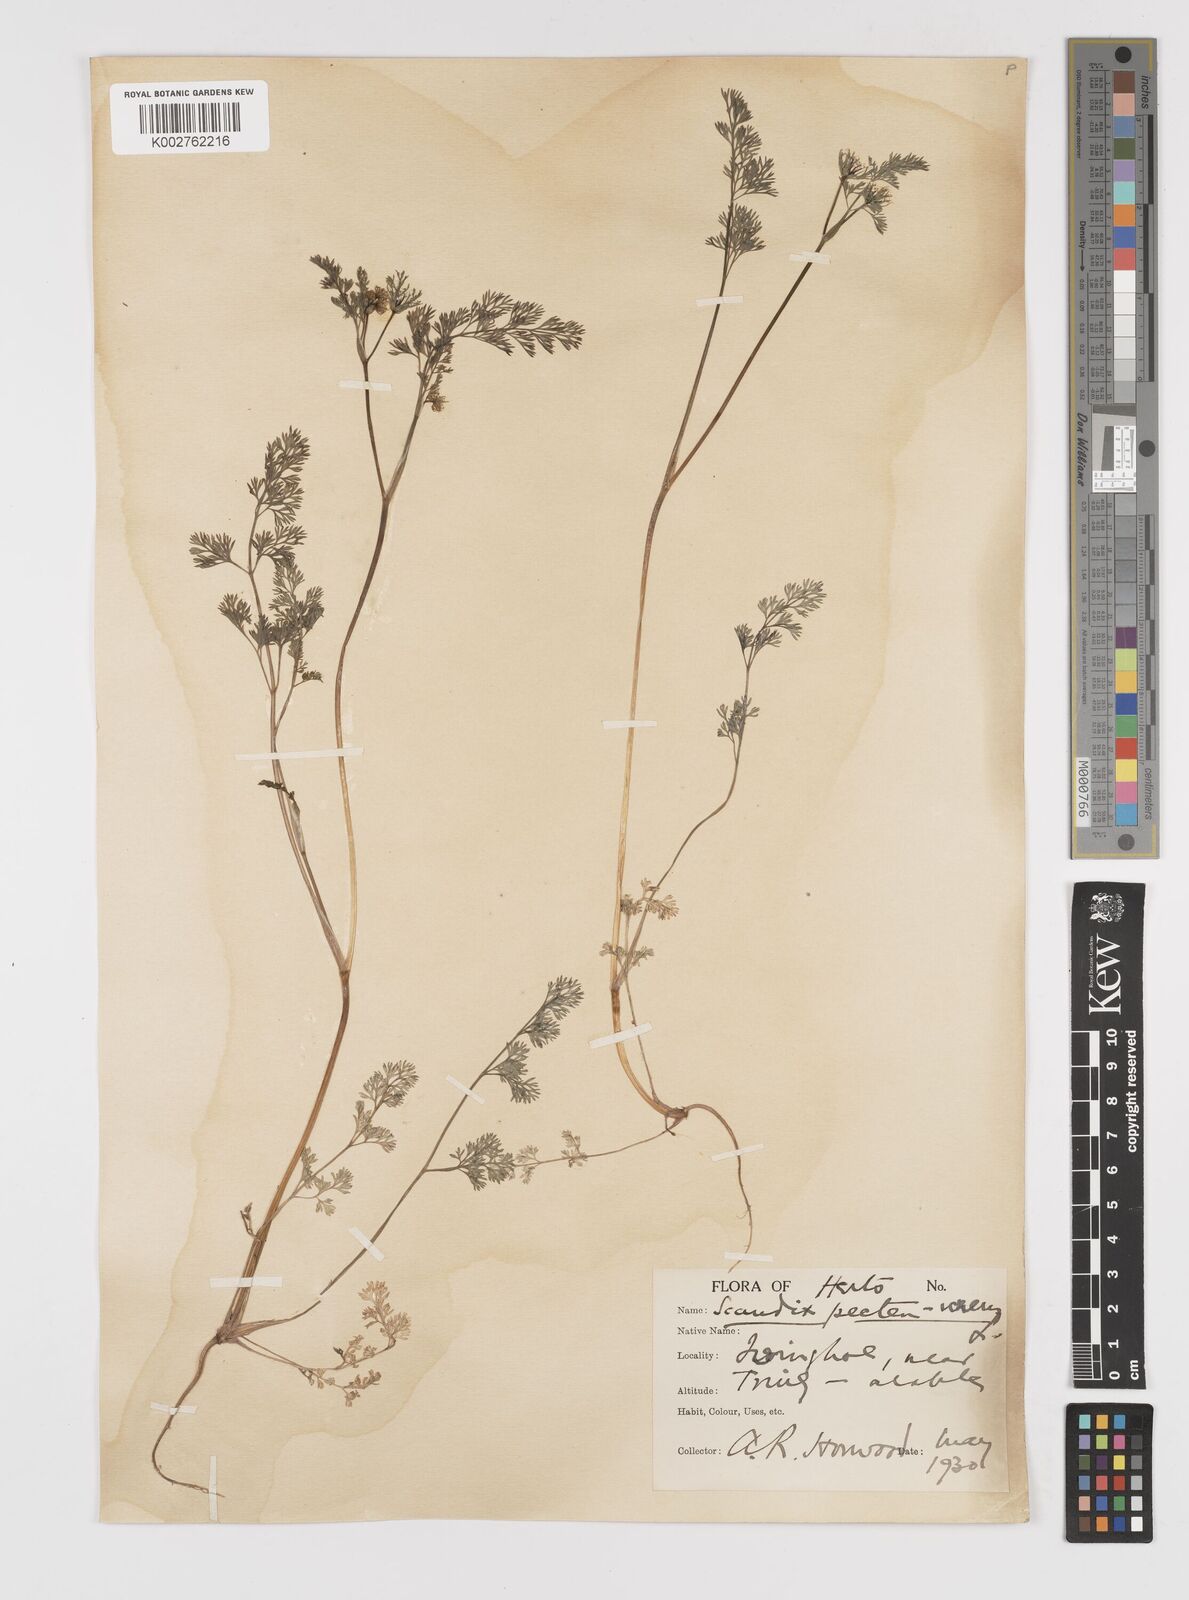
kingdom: Plantae
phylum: Tracheophyta
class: Magnoliopsida
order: Apiales
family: Apiaceae
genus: Scandix
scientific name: Scandix pecten-veneris
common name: Shepherd's-needle
